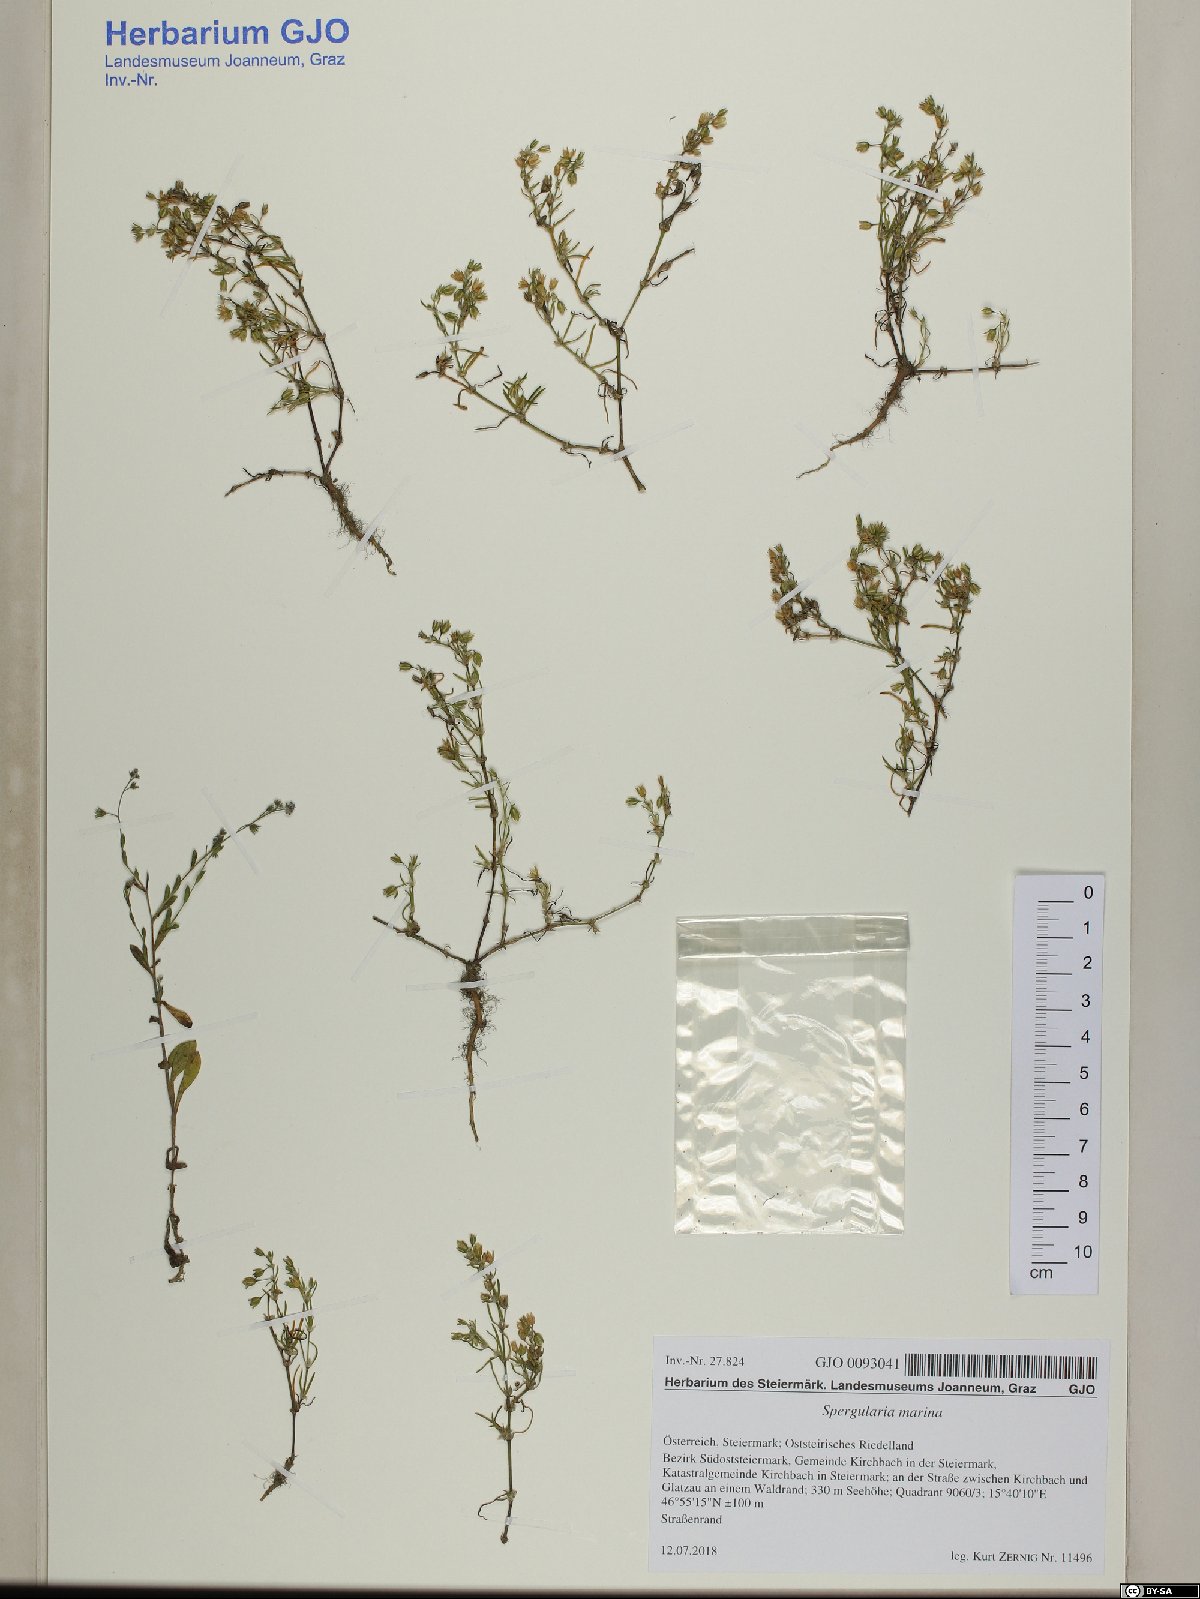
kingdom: Plantae
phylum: Tracheophyta
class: Magnoliopsida
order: Caryophyllales
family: Caryophyllaceae
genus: Spergularia
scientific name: Spergularia marina
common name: Lesser sea-spurrey
